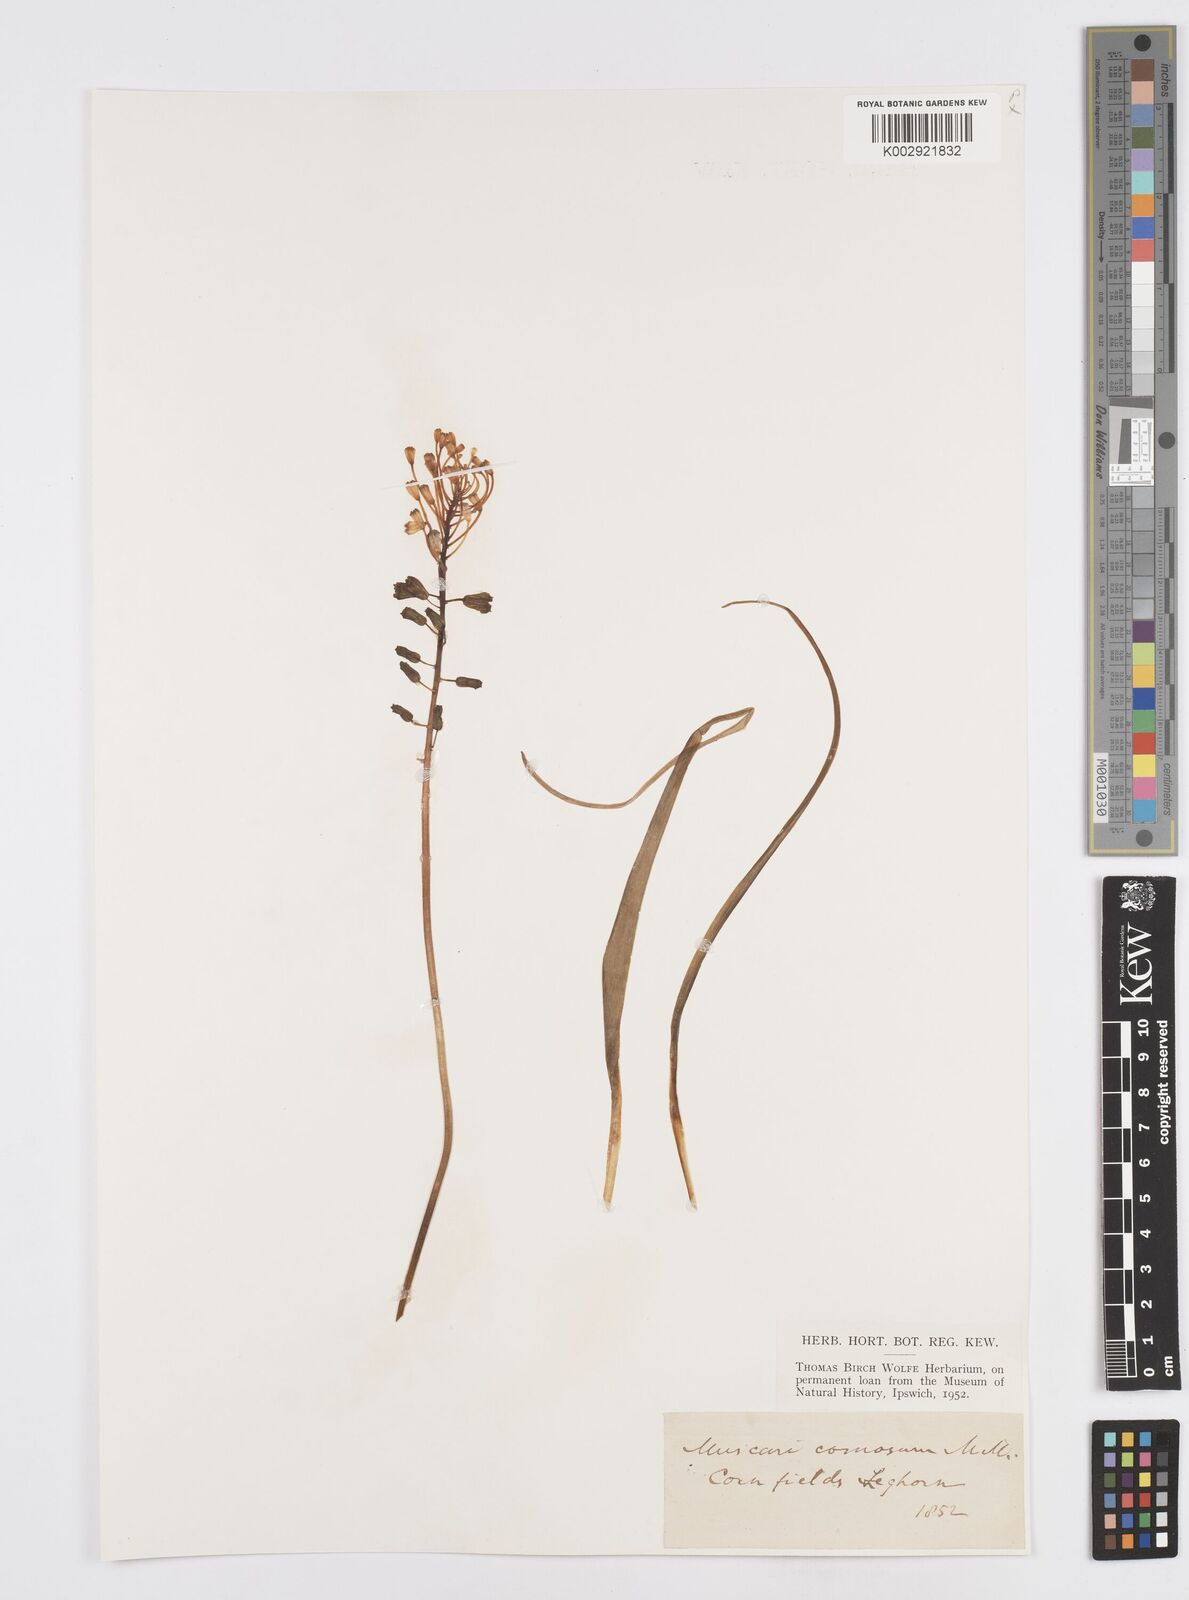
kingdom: Plantae
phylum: Tracheophyta
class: Liliopsida
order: Asparagales
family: Asparagaceae
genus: Muscari
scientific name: Muscari comosum
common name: Tassel hyacinth
